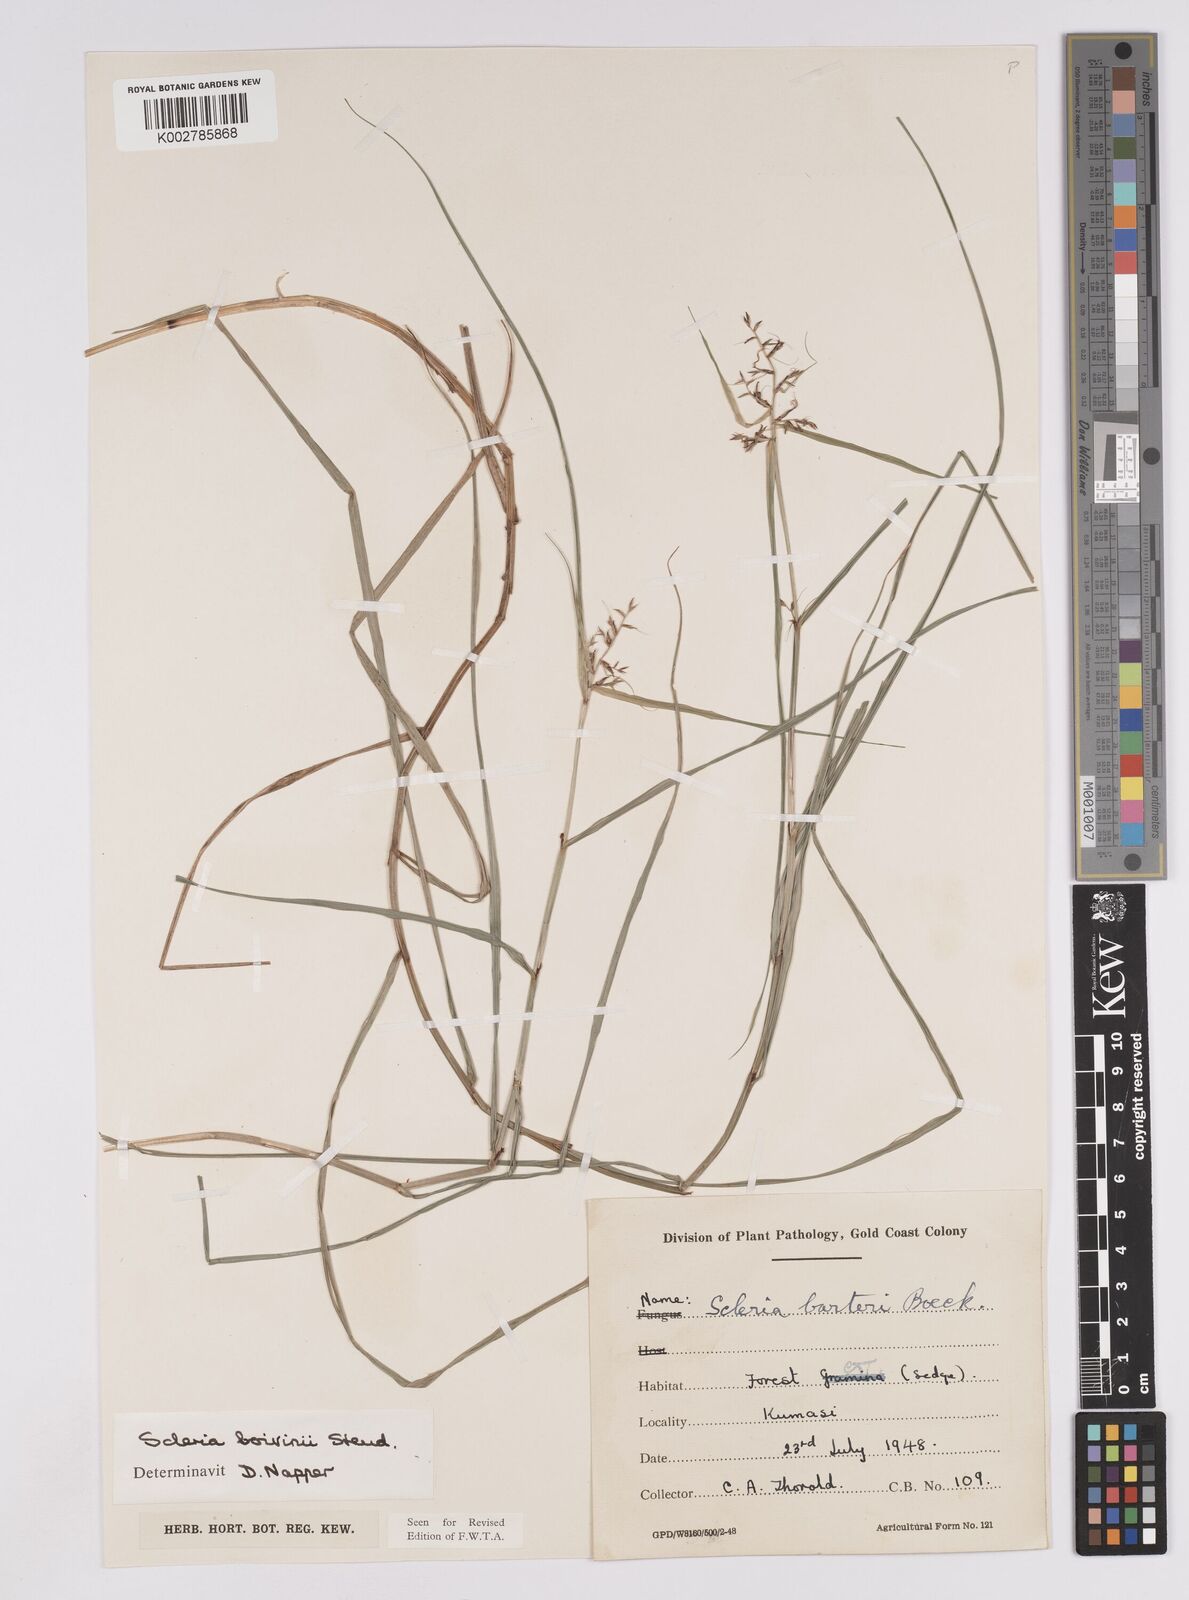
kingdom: Plantae
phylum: Tracheophyta
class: Liliopsida
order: Poales
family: Cyperaceae
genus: Scleria
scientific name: Scleria boivinii
